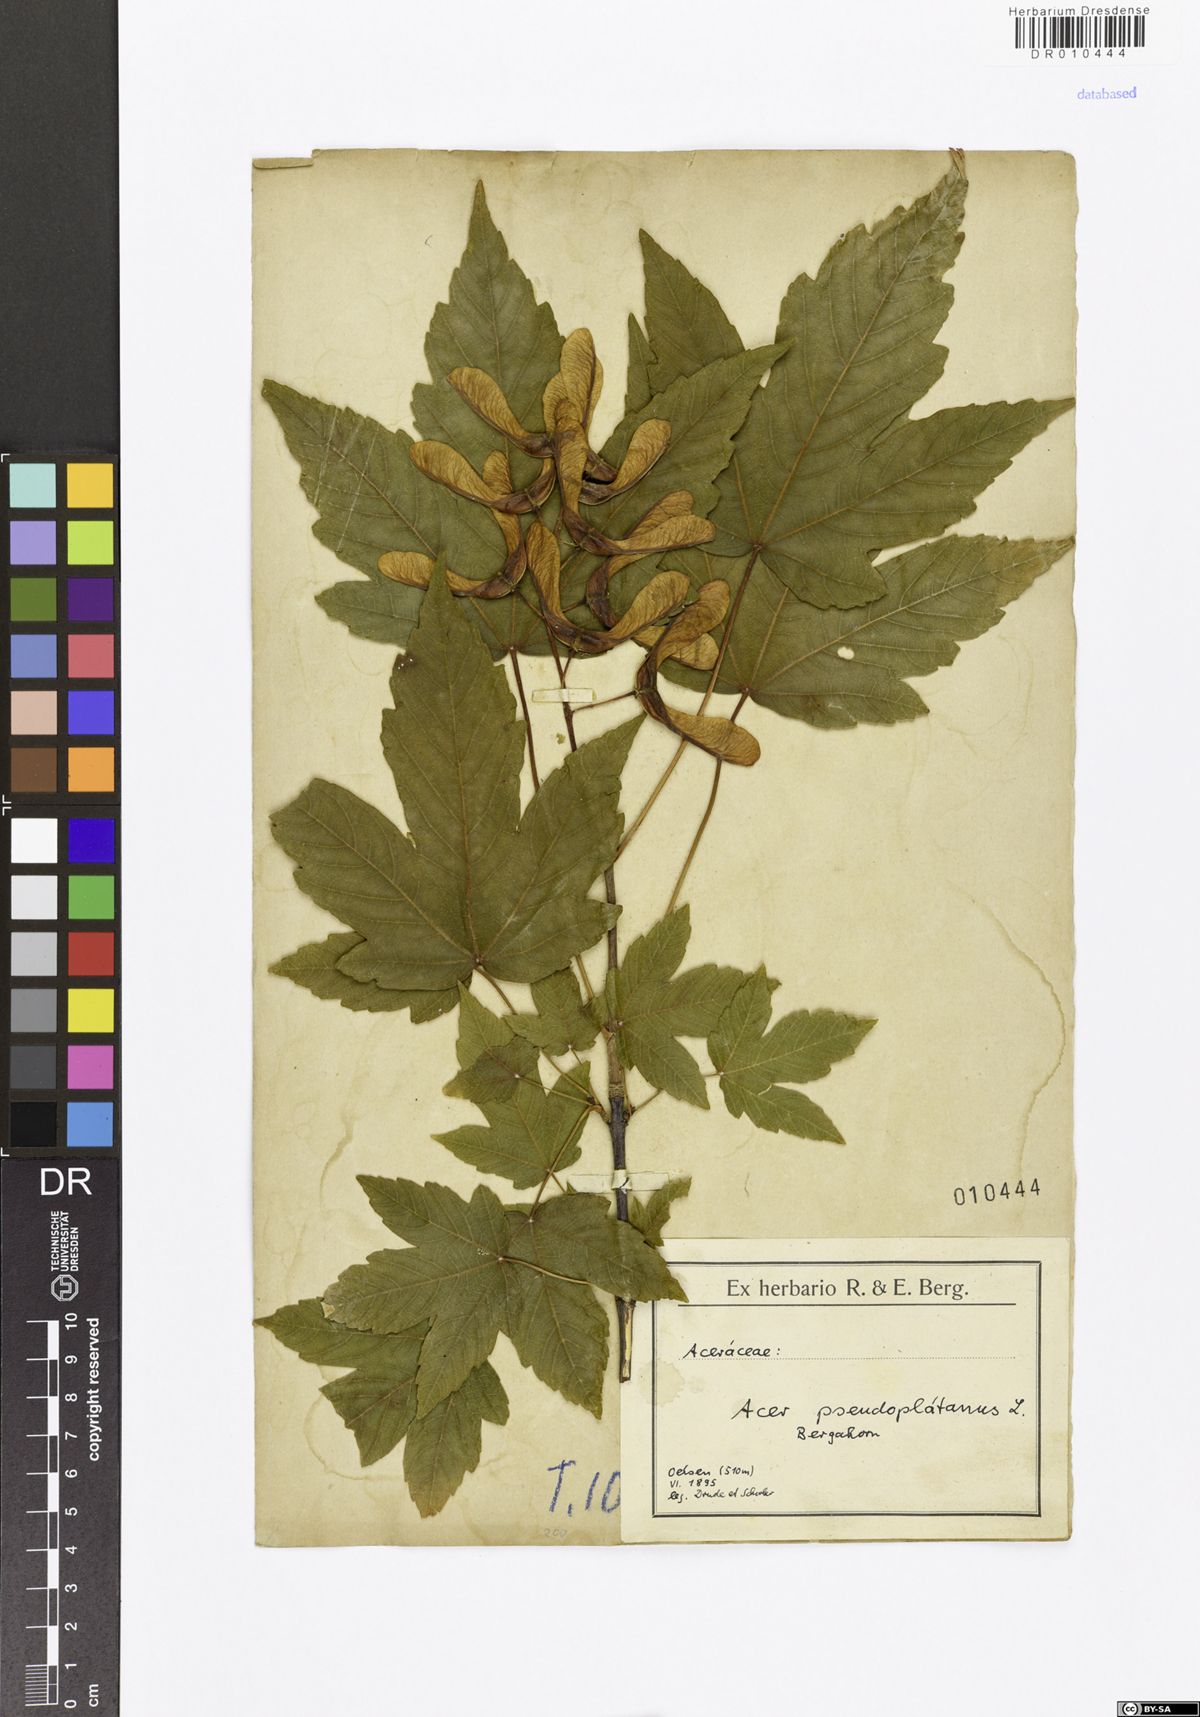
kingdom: Plantae
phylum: Tracheophyta
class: Magnoliopsida
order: Sapindales
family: Sapindaceae
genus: Acer
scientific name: Acer pseudoplatanus
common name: Sycamore
